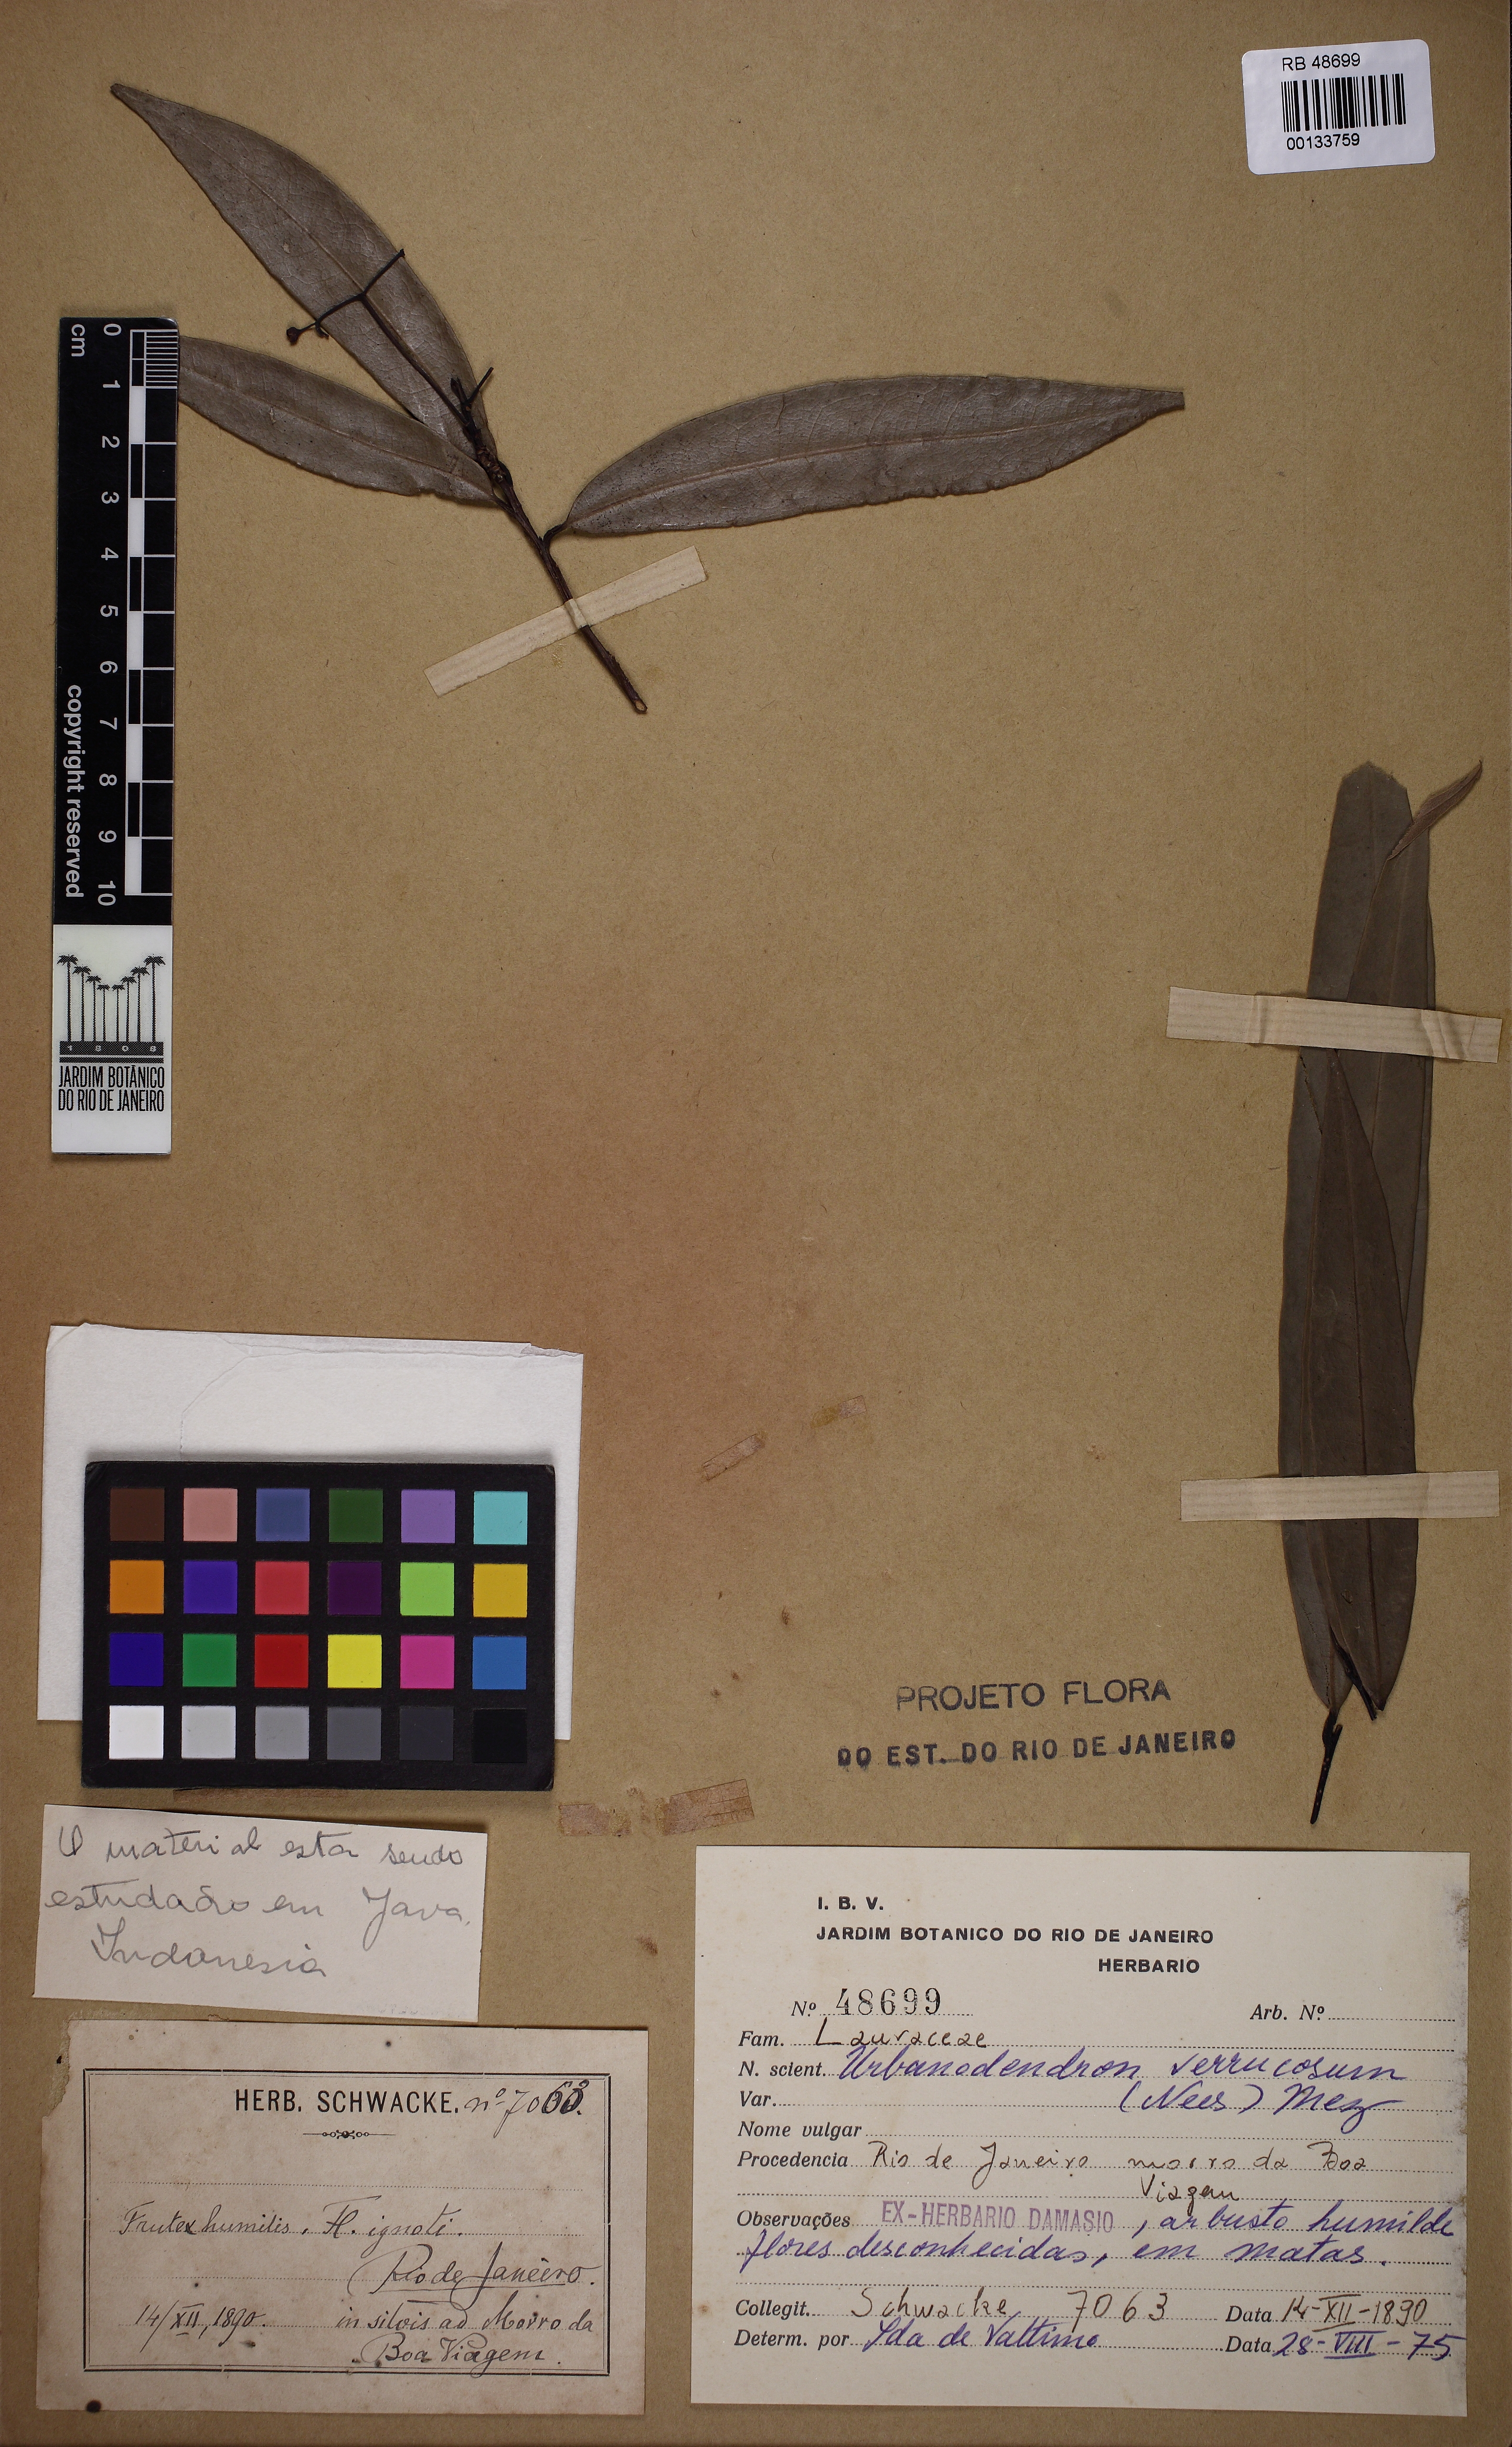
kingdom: Plantae
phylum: Tracheophyta
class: Magnoliopsida
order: Laurales
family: Lauraceae
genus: Urbanodendron
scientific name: Urbanodendron verrucosum
